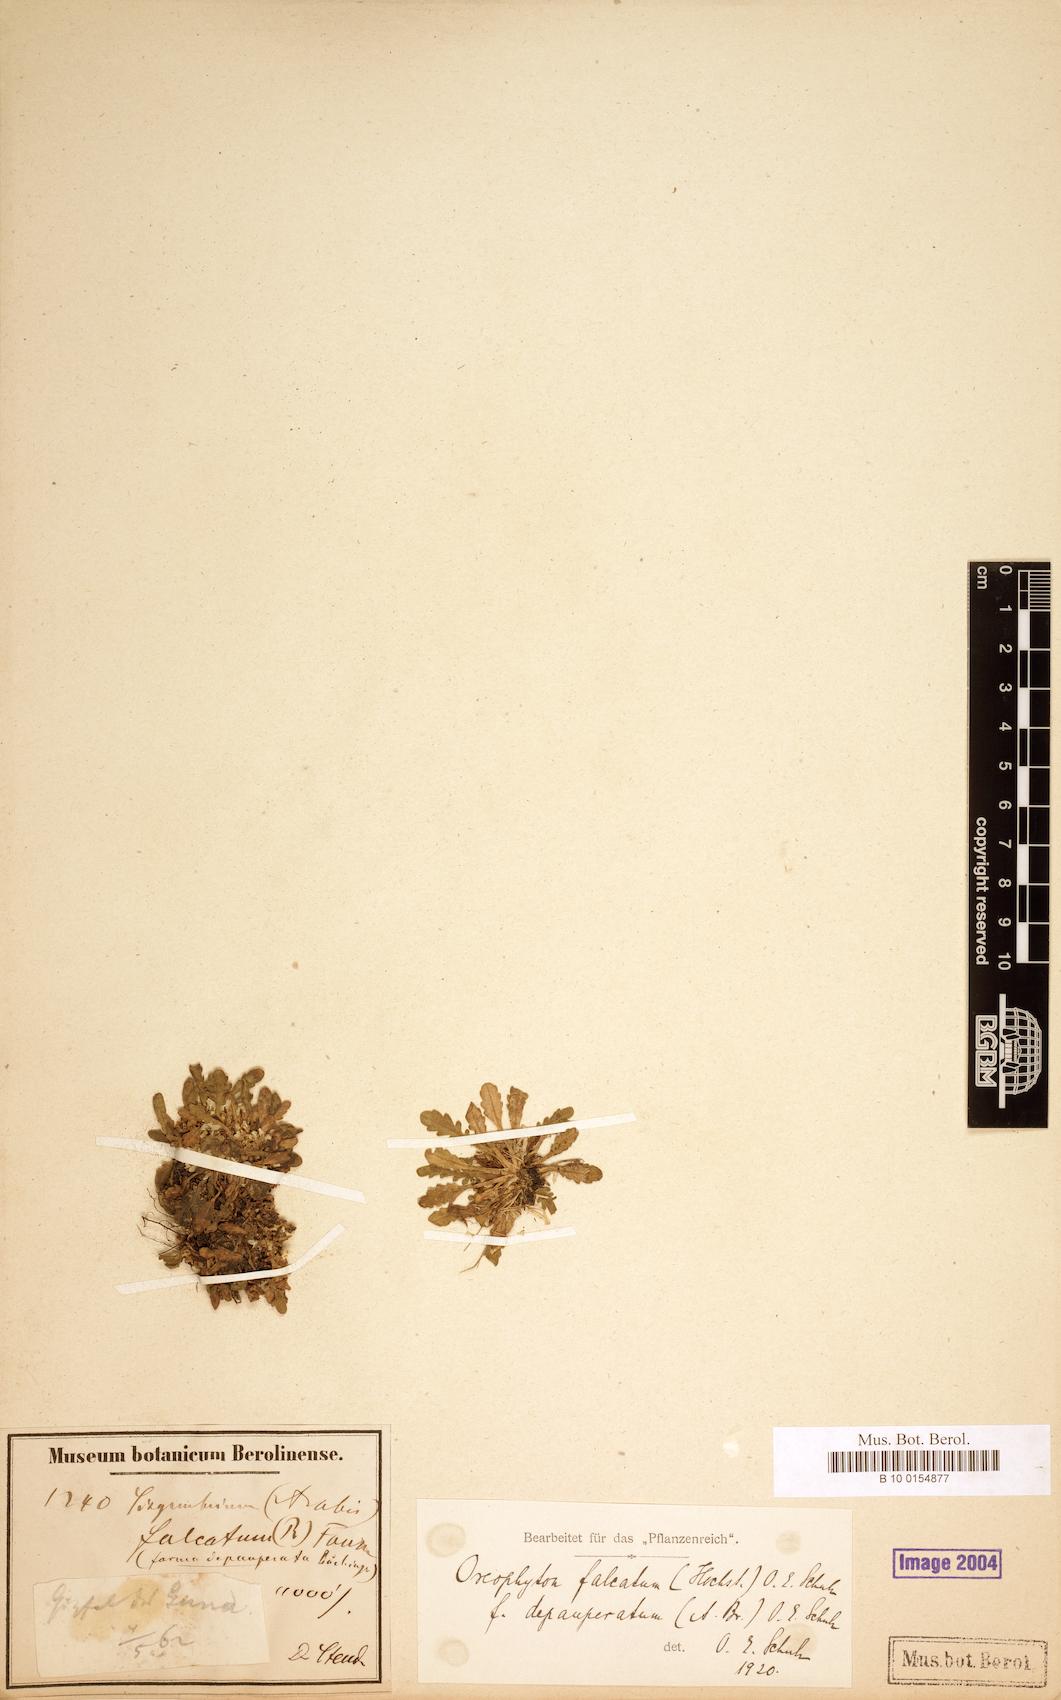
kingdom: Plantae
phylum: Tracheophyta
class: Magnoliopsida
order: Brassicales
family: Brassicaceae
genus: Oreophyton
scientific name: Oreophyton falcatum
